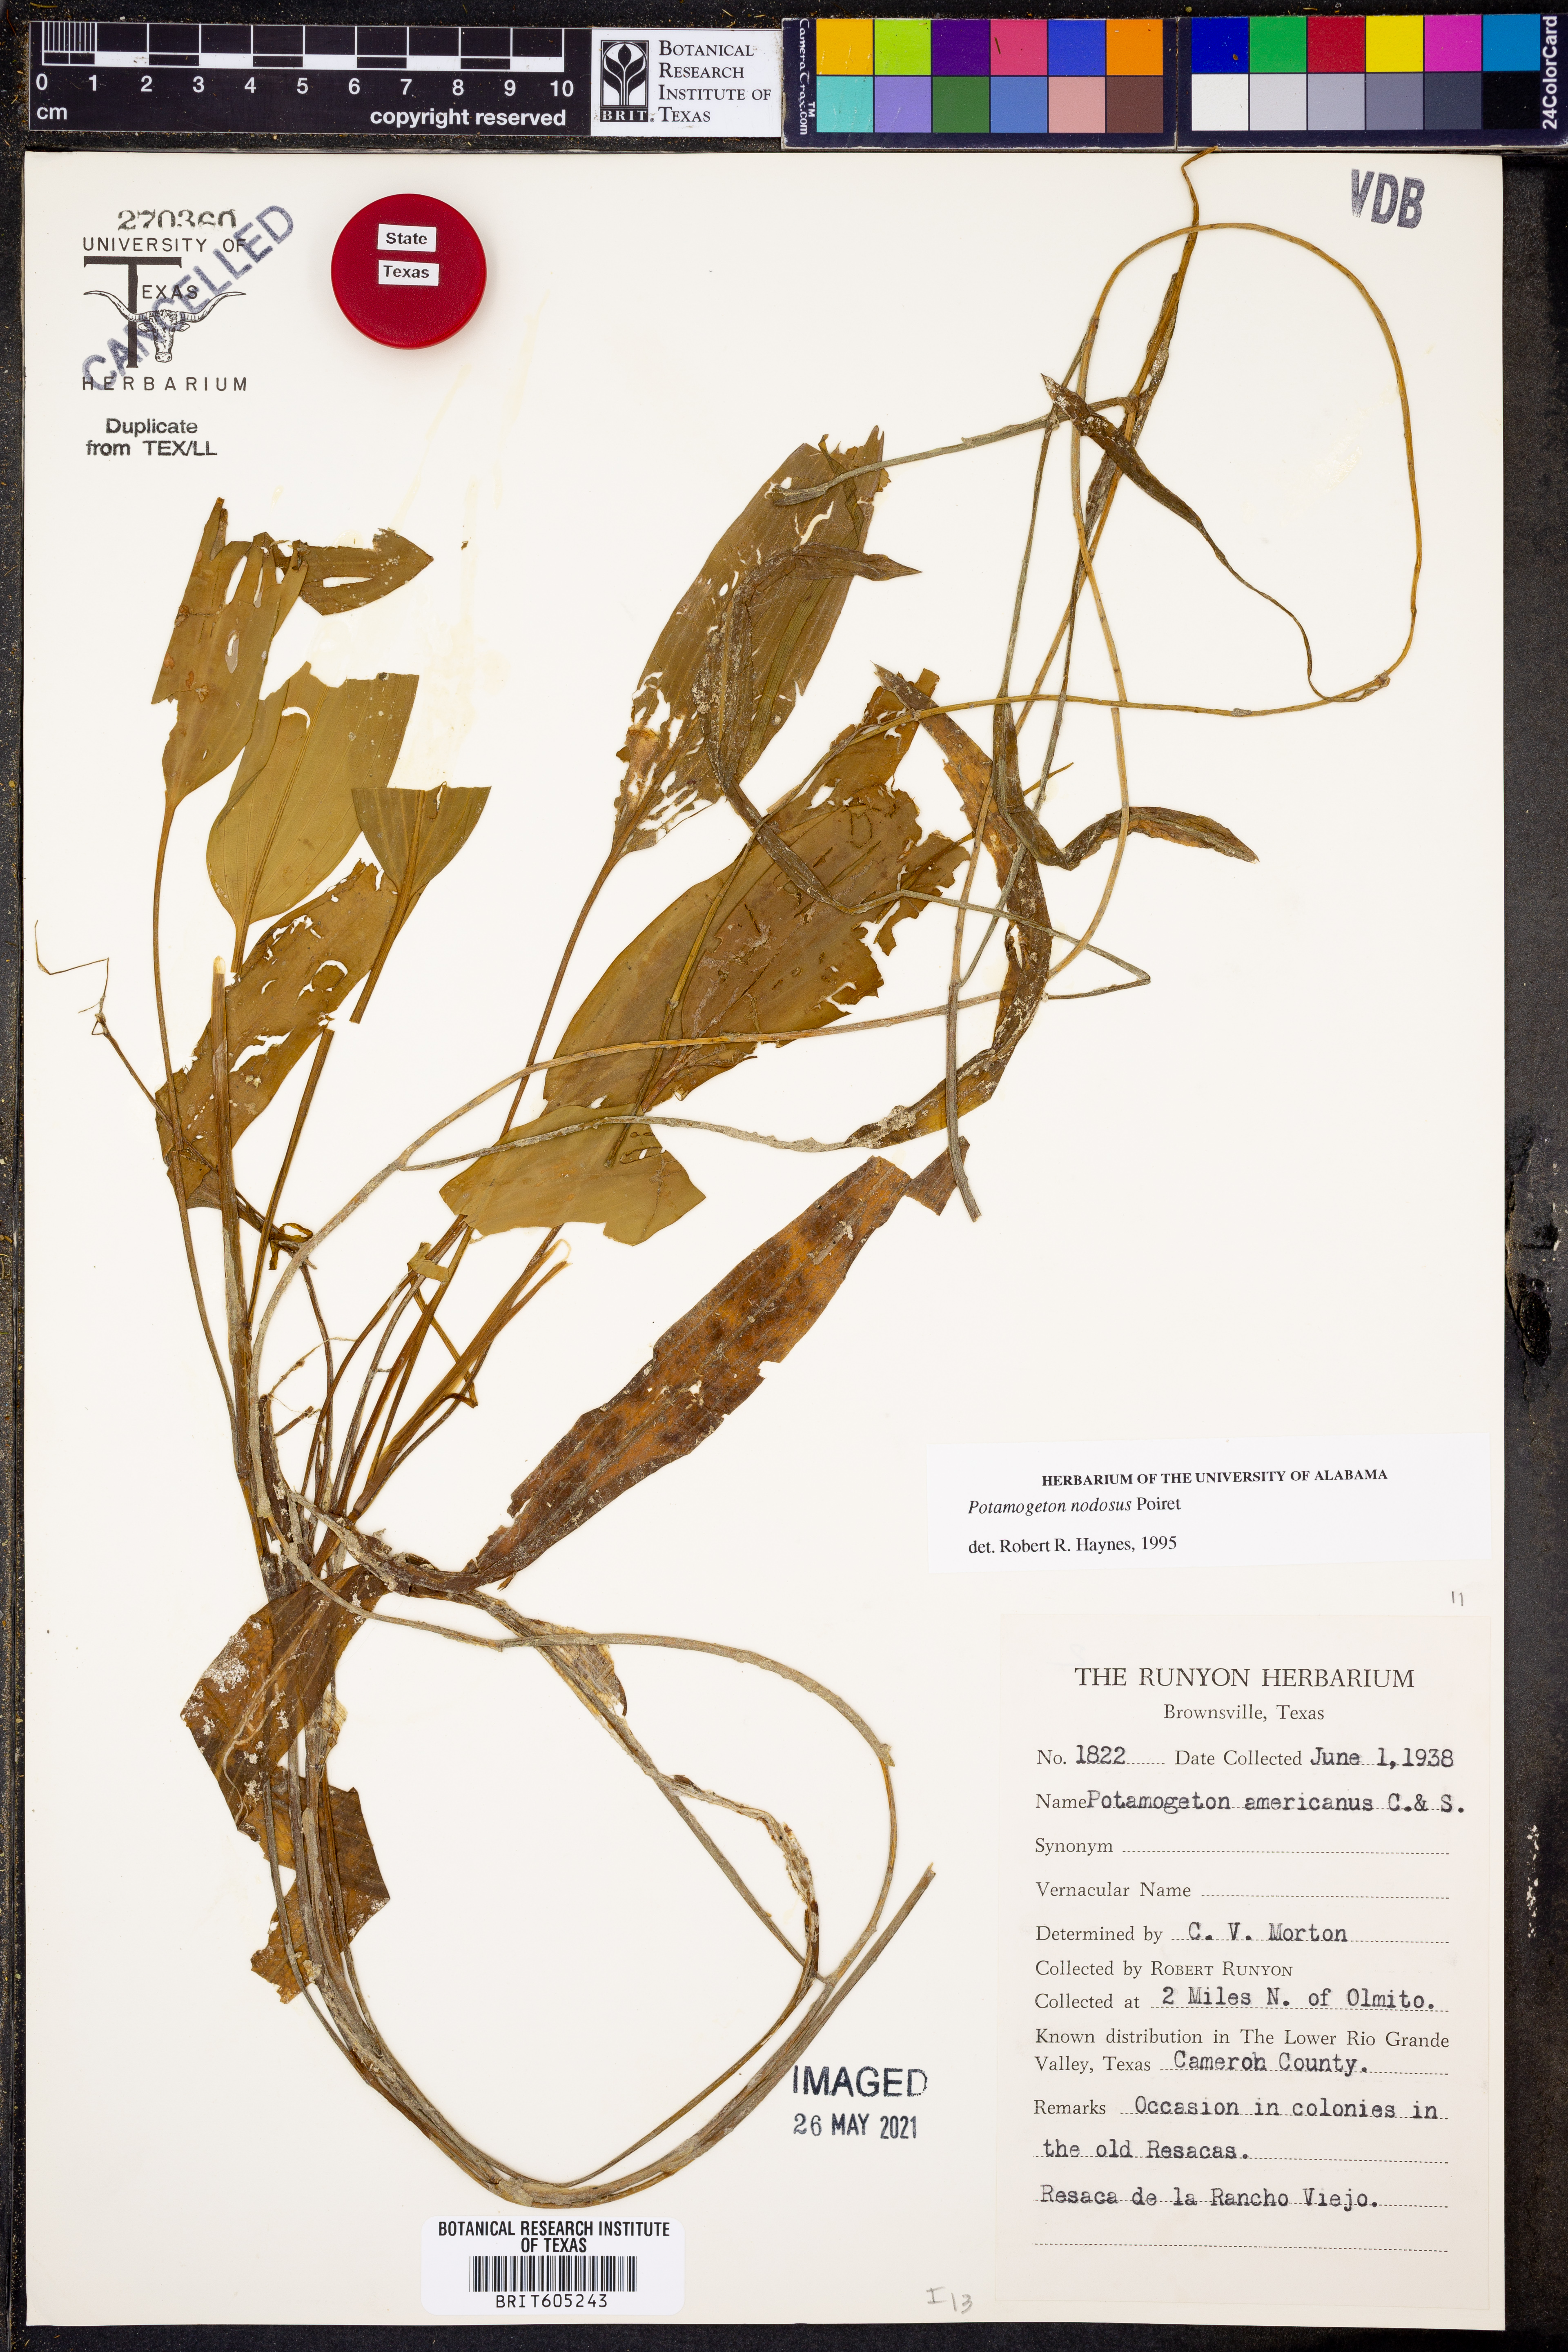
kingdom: Plantae
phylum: Tracheophyta
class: Liliopsida
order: Alismatales
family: Potamogetonaceae
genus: Potamogeton
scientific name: Potamogeton nodosus
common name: Loddon pondweed
